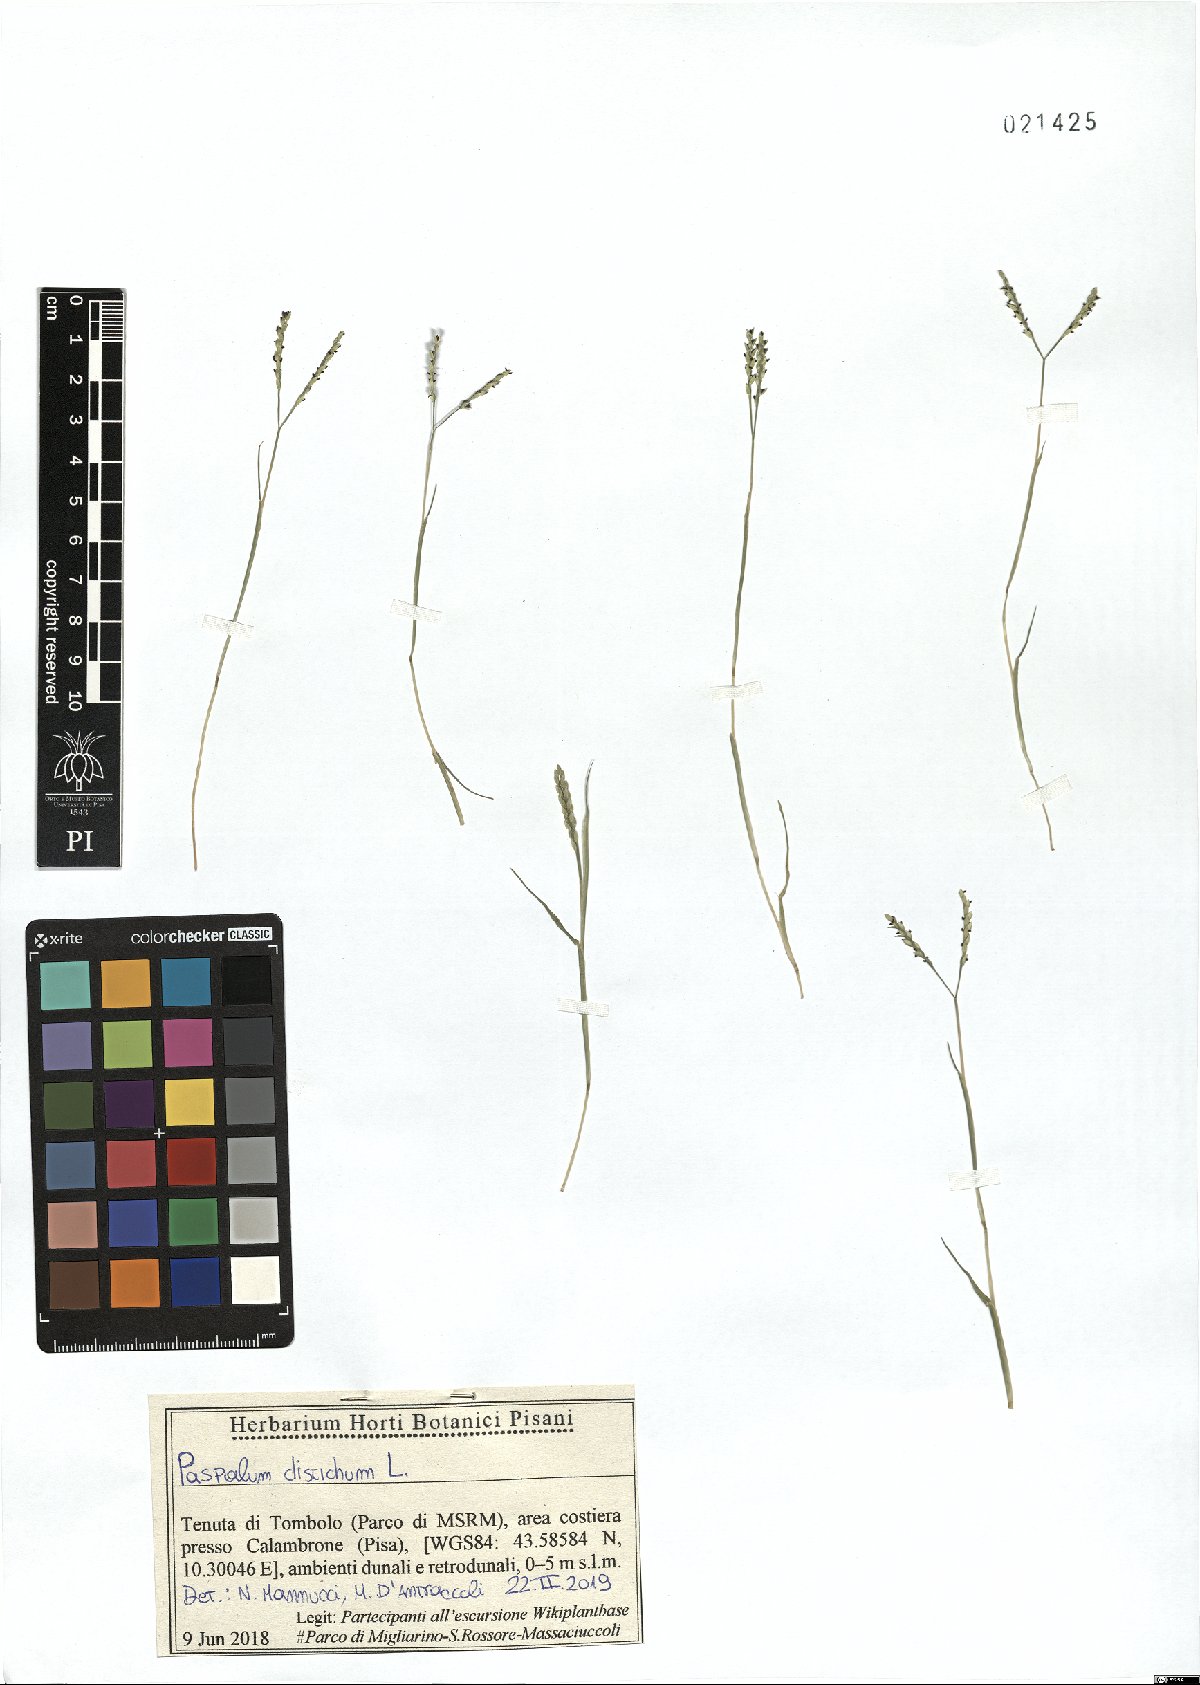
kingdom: Plantae
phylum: Tracheophyta
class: Liliopsida
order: Poales
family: Poaceae
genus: Paspalum
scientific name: Paspalum distichum
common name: Knotgrass
